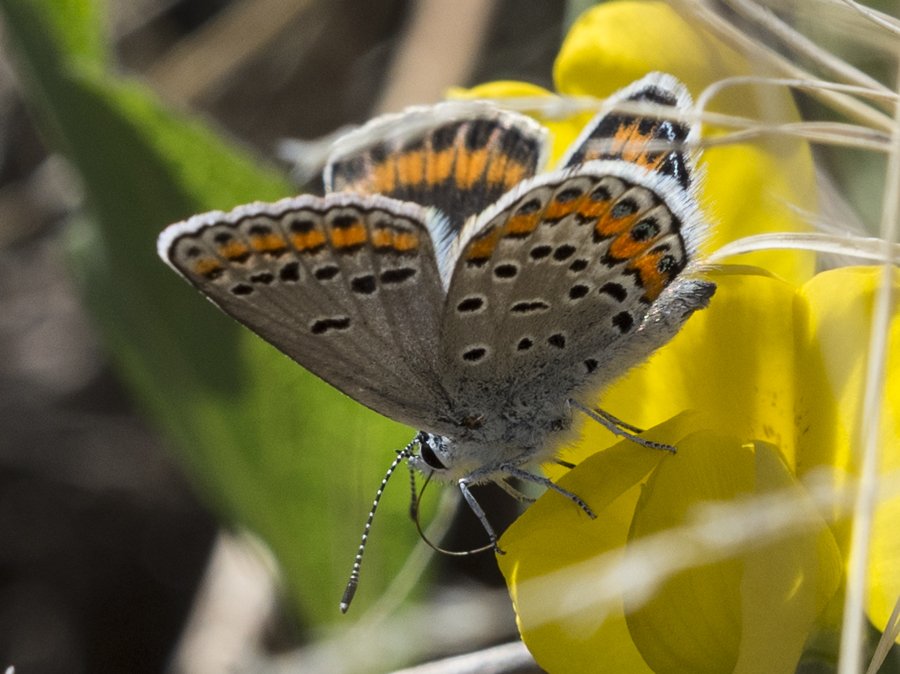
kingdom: Animalia
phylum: Arthropoda
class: Insecta
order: Lepidoptera
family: Lycaenidae
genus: Lycaeides
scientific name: Lycaeides melissa
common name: Melissa Blue
